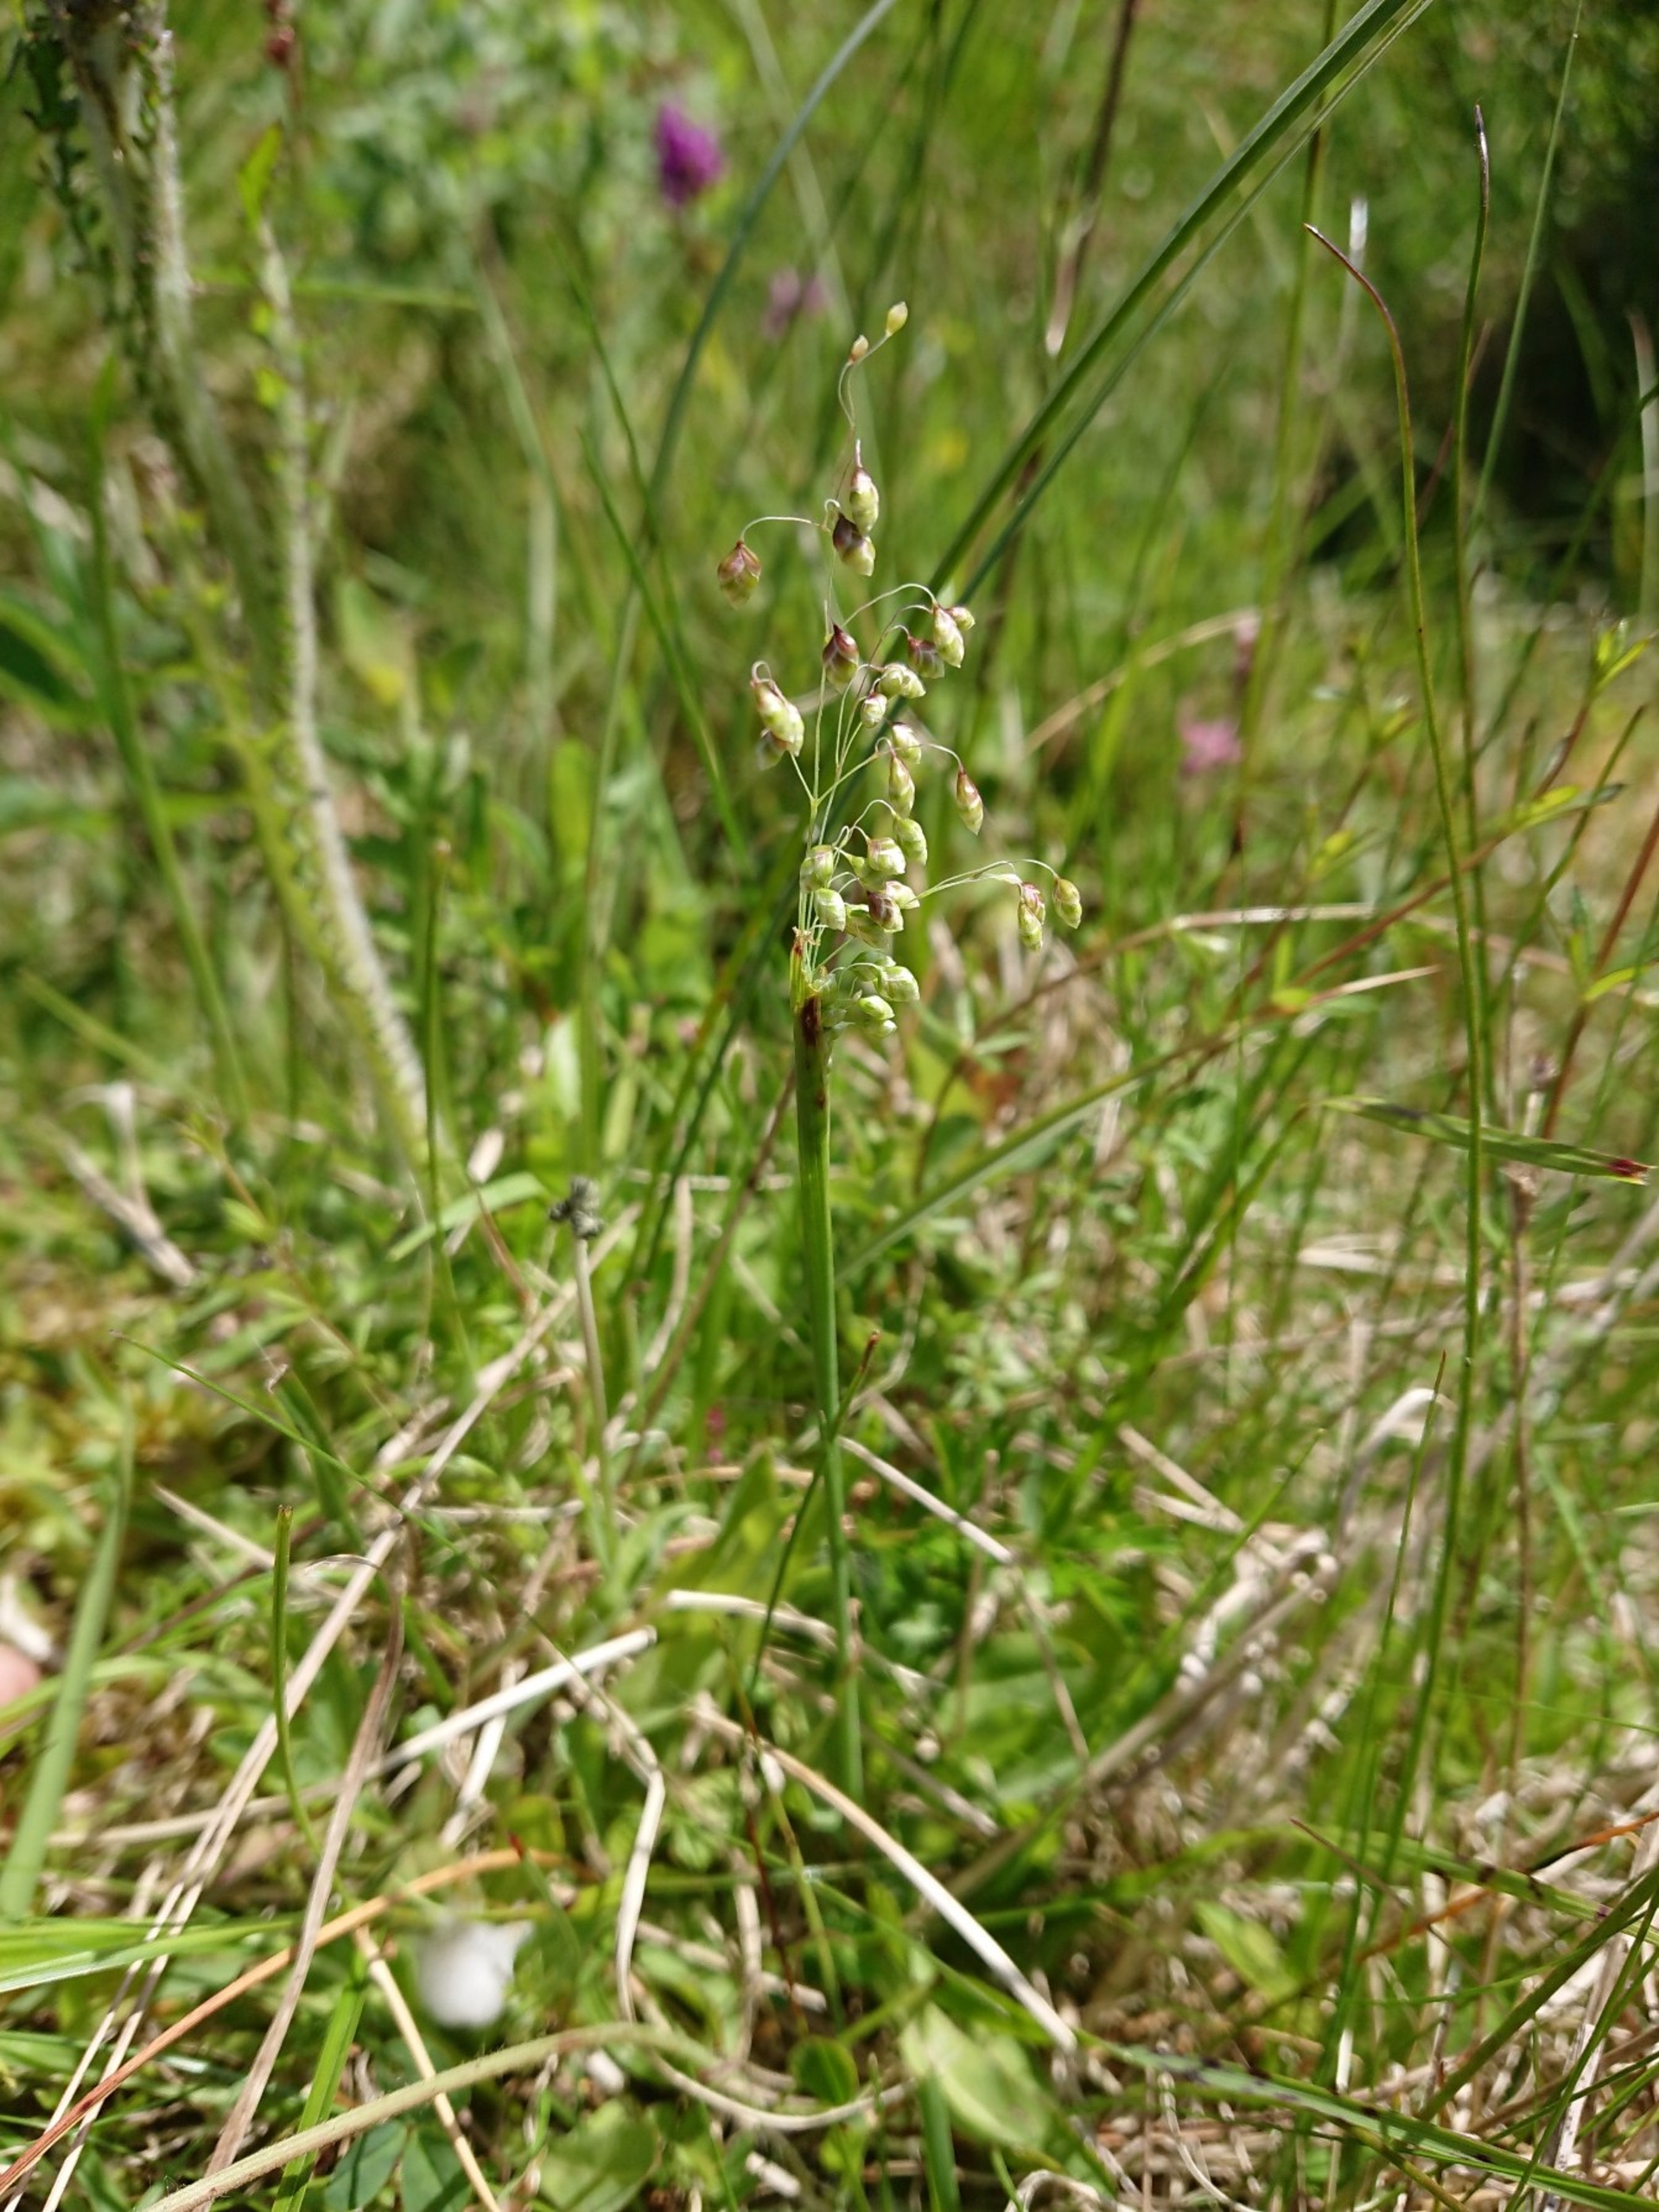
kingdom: Plantae
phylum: Tracheophyta
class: Liliopsida
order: Poales
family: Poaceae
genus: Briza
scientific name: Briza media
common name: Hjertegræs
